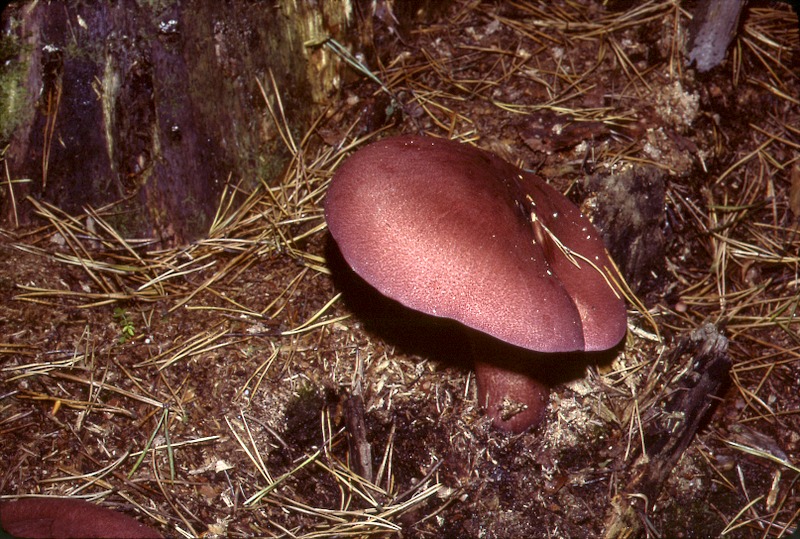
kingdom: Fungi
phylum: Basidiomycota
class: Agaricomycetes
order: Agaricales
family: Tricholomataceae
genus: Tricholomopsis
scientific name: Tricholomopsis rutilans
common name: Plums and custard
